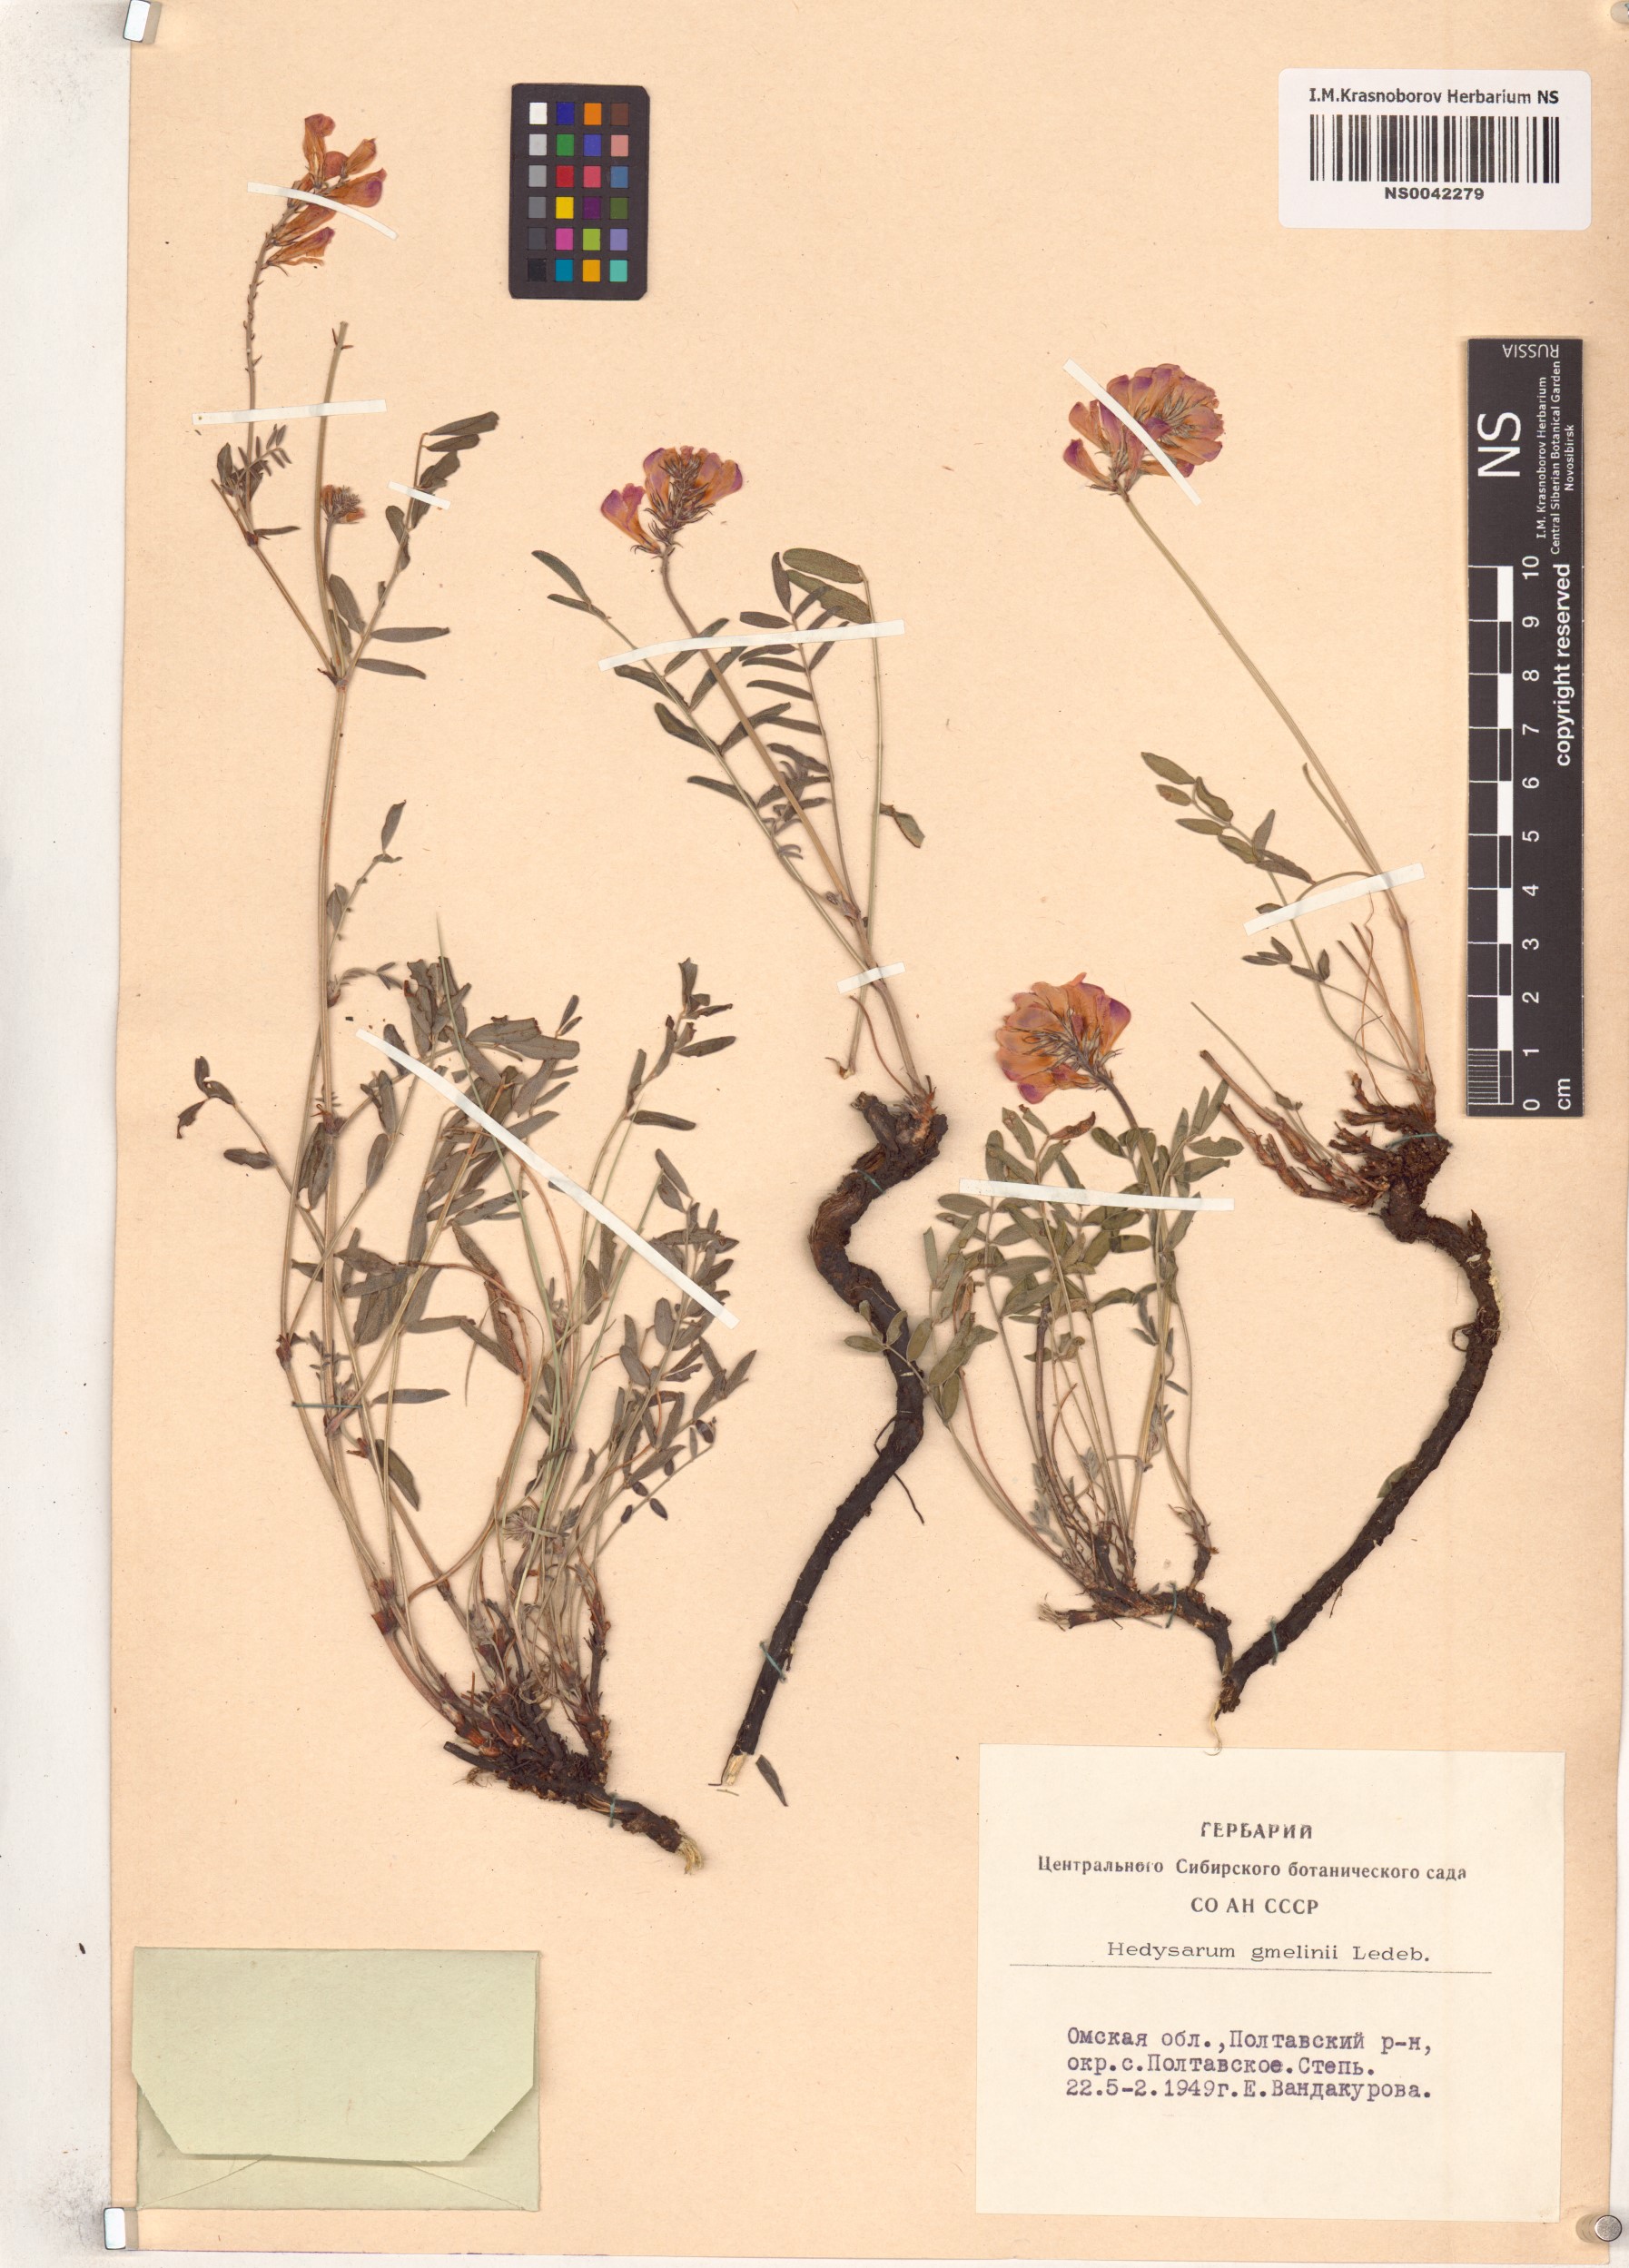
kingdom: Plantae
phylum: Tracheophyta
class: Magnoliopsida
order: Fabales
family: Fabaceae
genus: Hedysarum
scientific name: Hedysarum gmelinii
